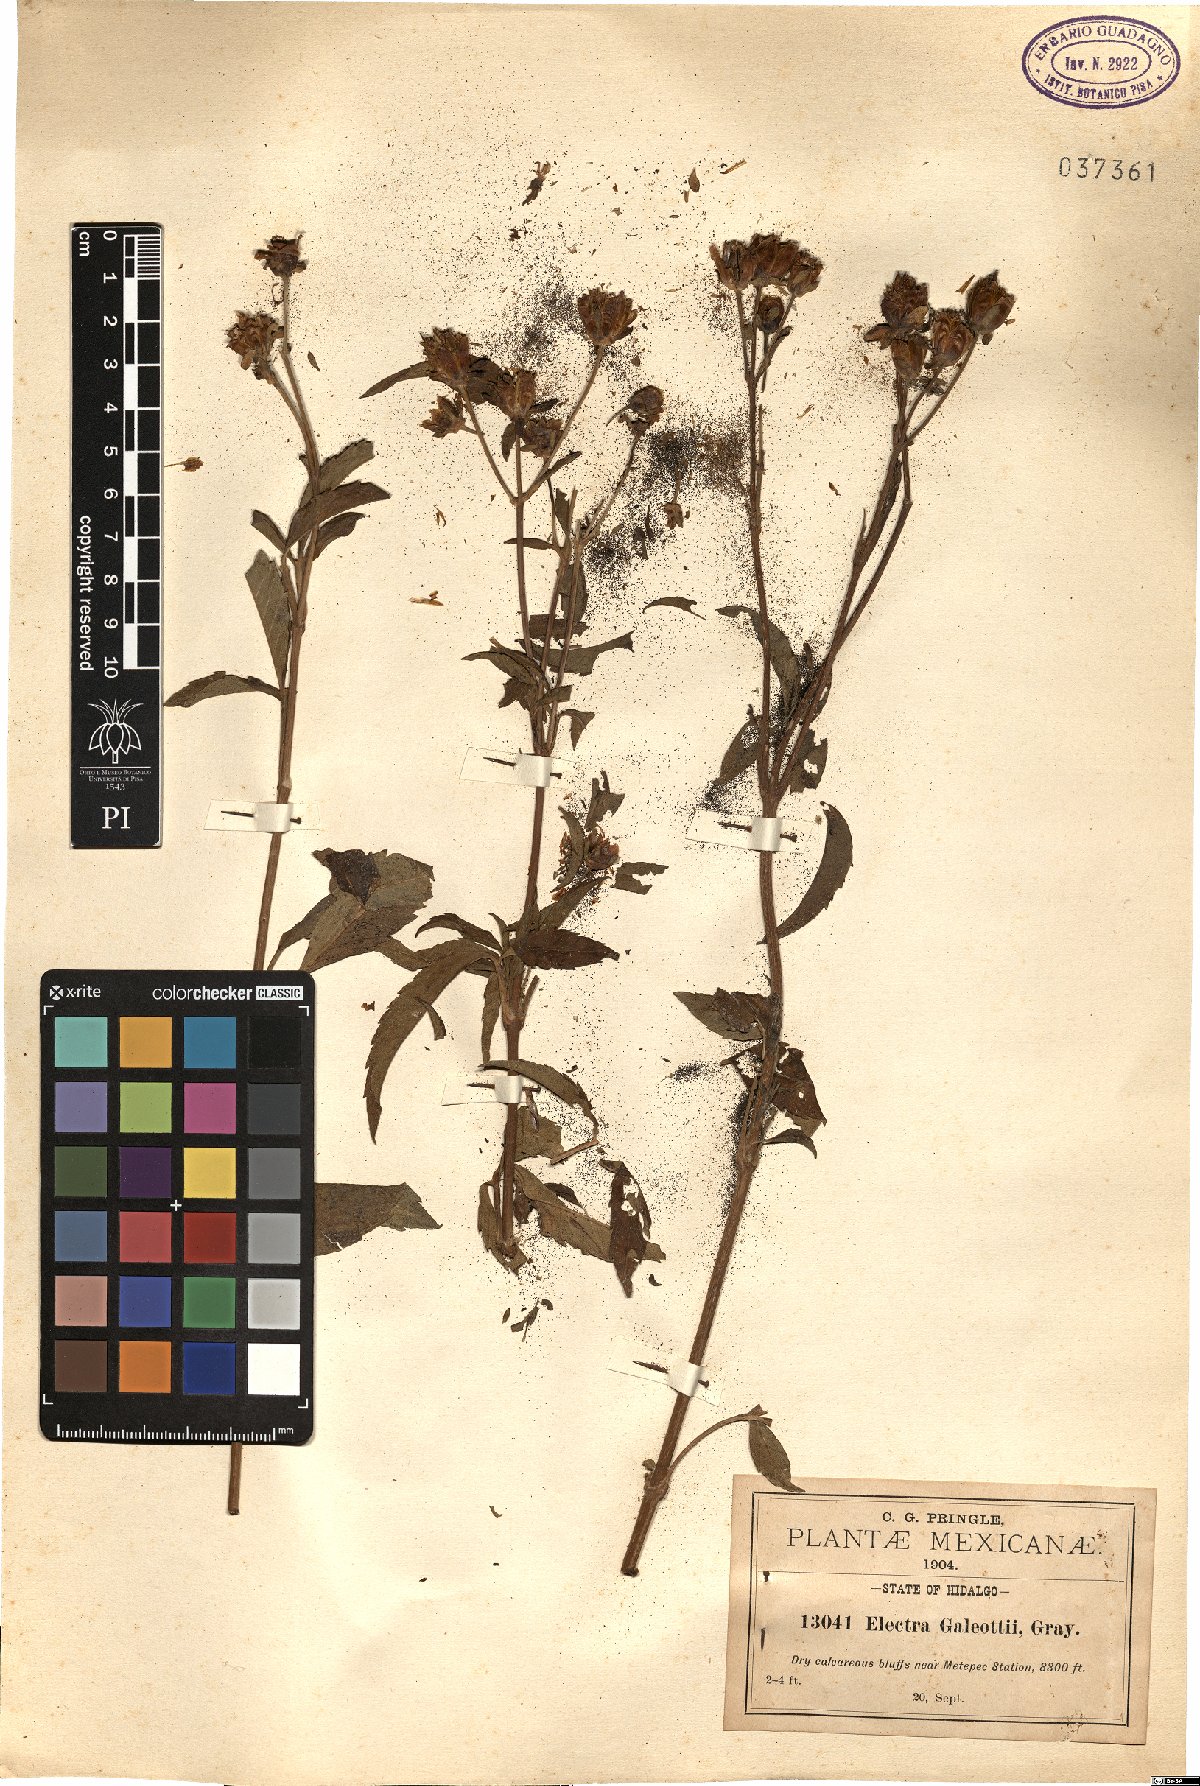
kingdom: Plantae
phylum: Tracheophyta
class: Magnoliopsida
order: Asterales
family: Asteraceae
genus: Electranthera
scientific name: Electranthera mutica
